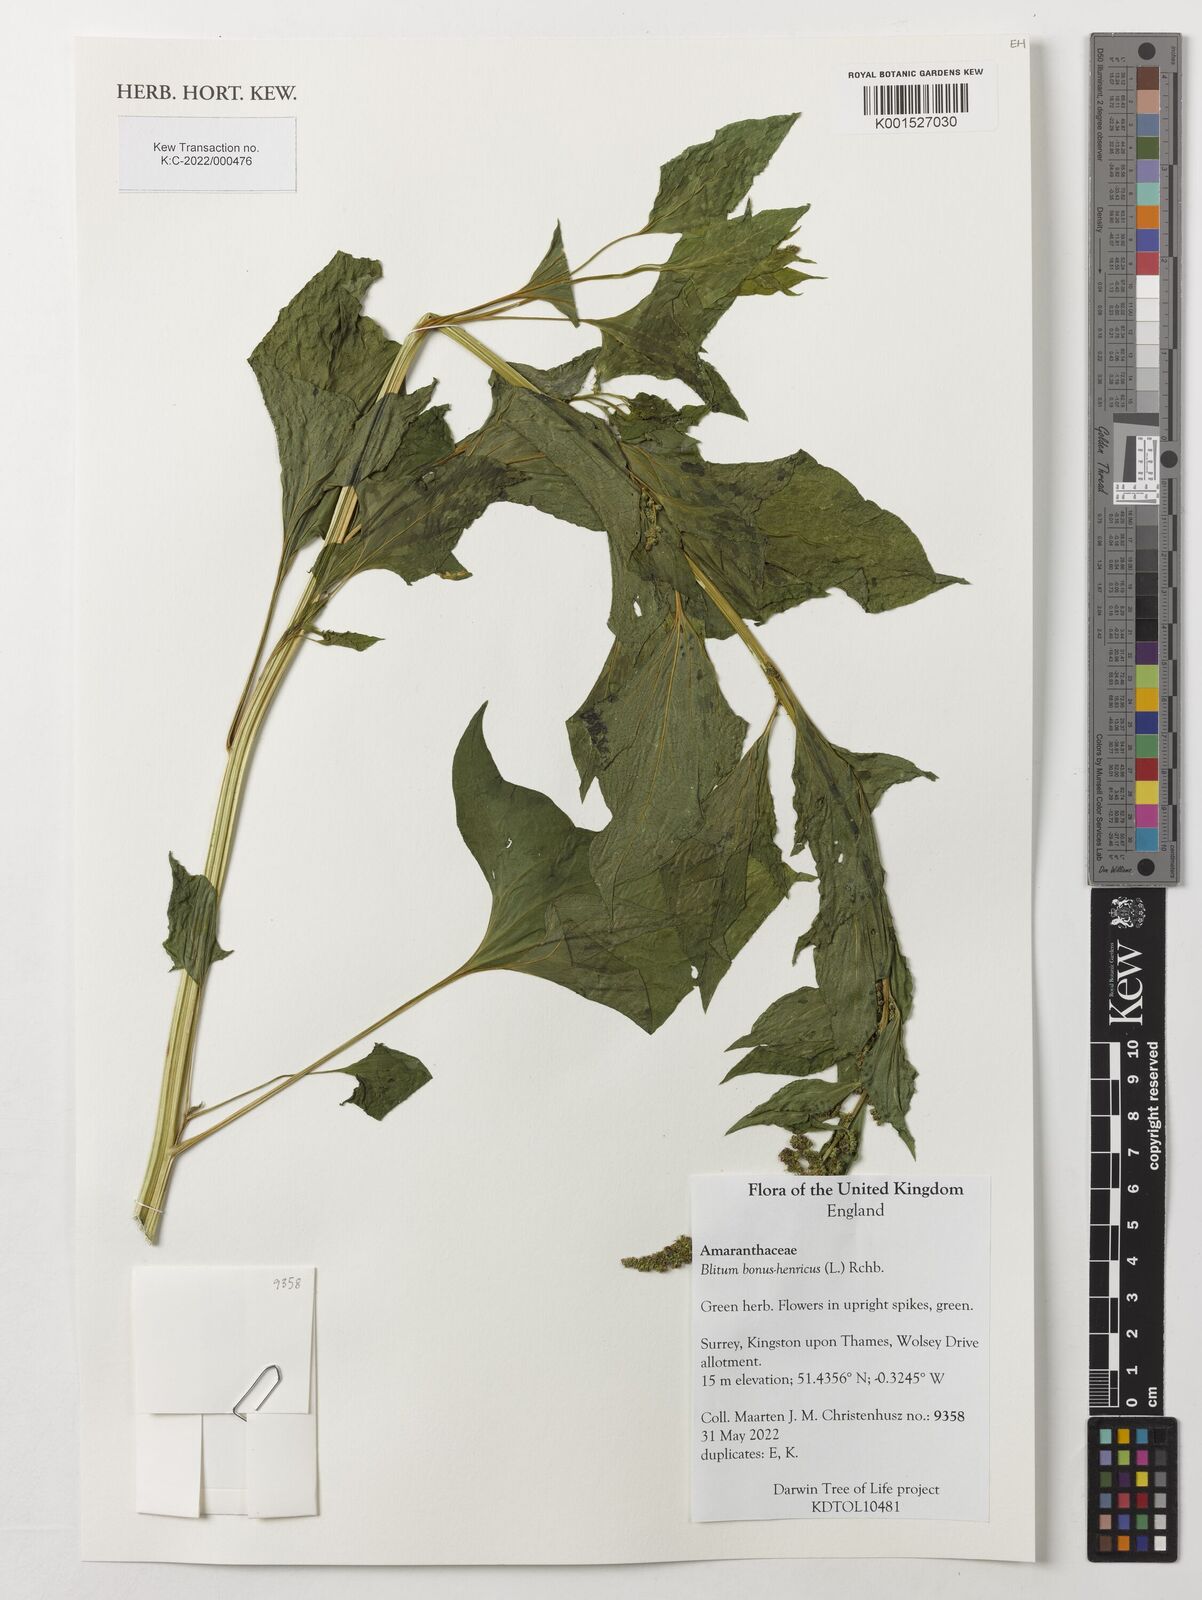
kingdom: Plantae
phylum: Tracheophyta
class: Magnoliopsida
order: Caryophyllales
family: Amaranthaceae
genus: Blitum
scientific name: Blitum bonus-henricus
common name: Good king henry
